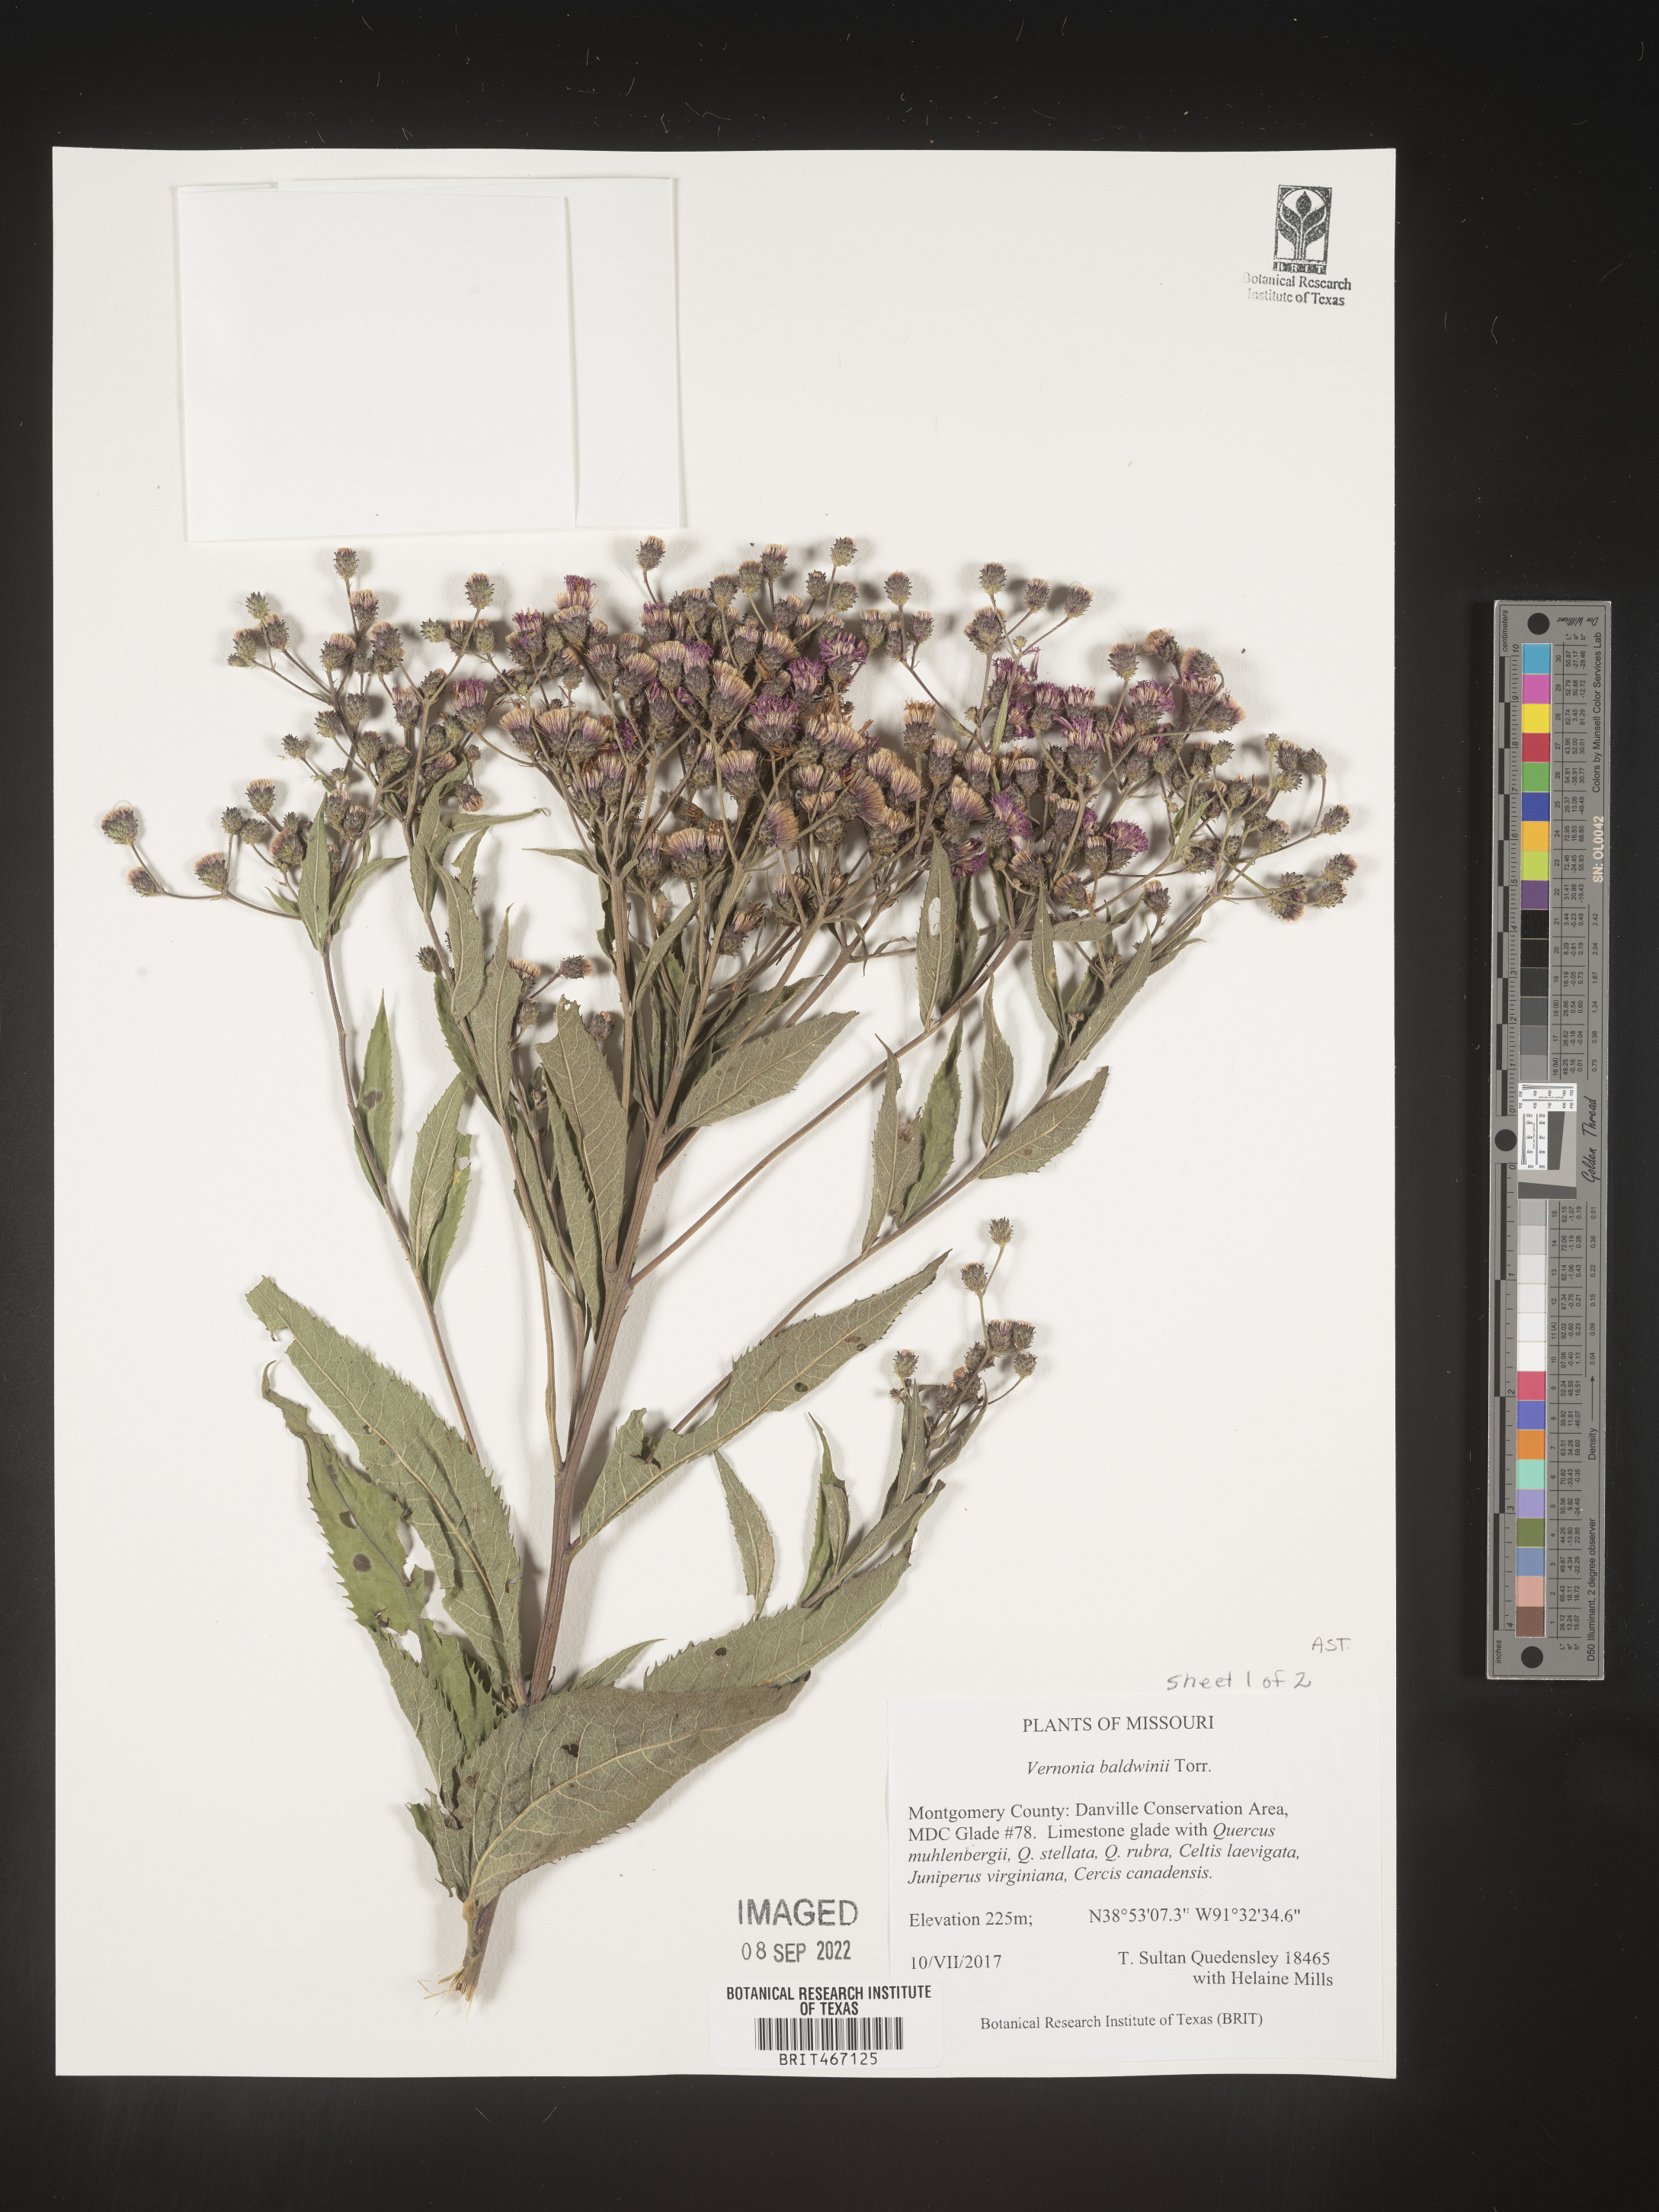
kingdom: Plantae
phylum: Tracheophyta
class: Magnoliopsida
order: Asterales
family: Asteraceae
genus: Vernonia
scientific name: Vernonia baldwinii
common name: Western ironweed
